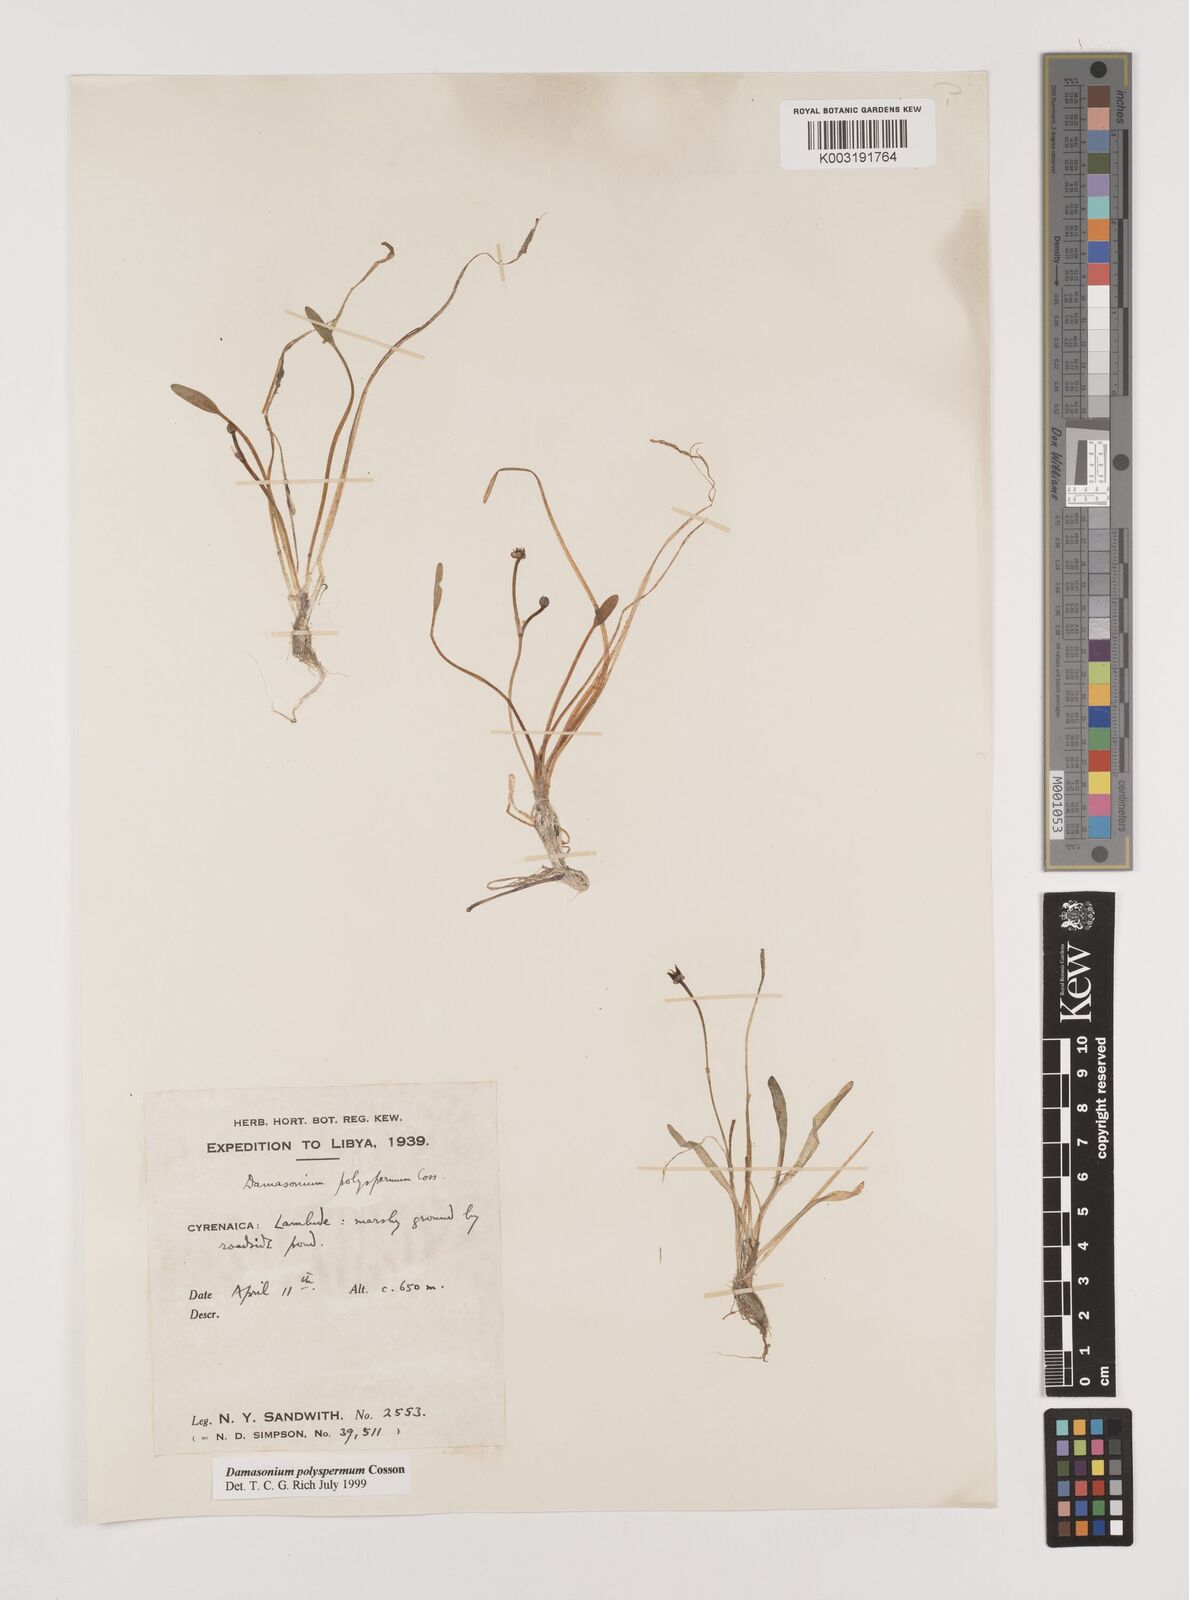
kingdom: Plantae
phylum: Tracheophyta
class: Liliopsida
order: Alismatales
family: Alismataceae
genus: Damasonium
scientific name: Damasonium polyspermum
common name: Starfruit
